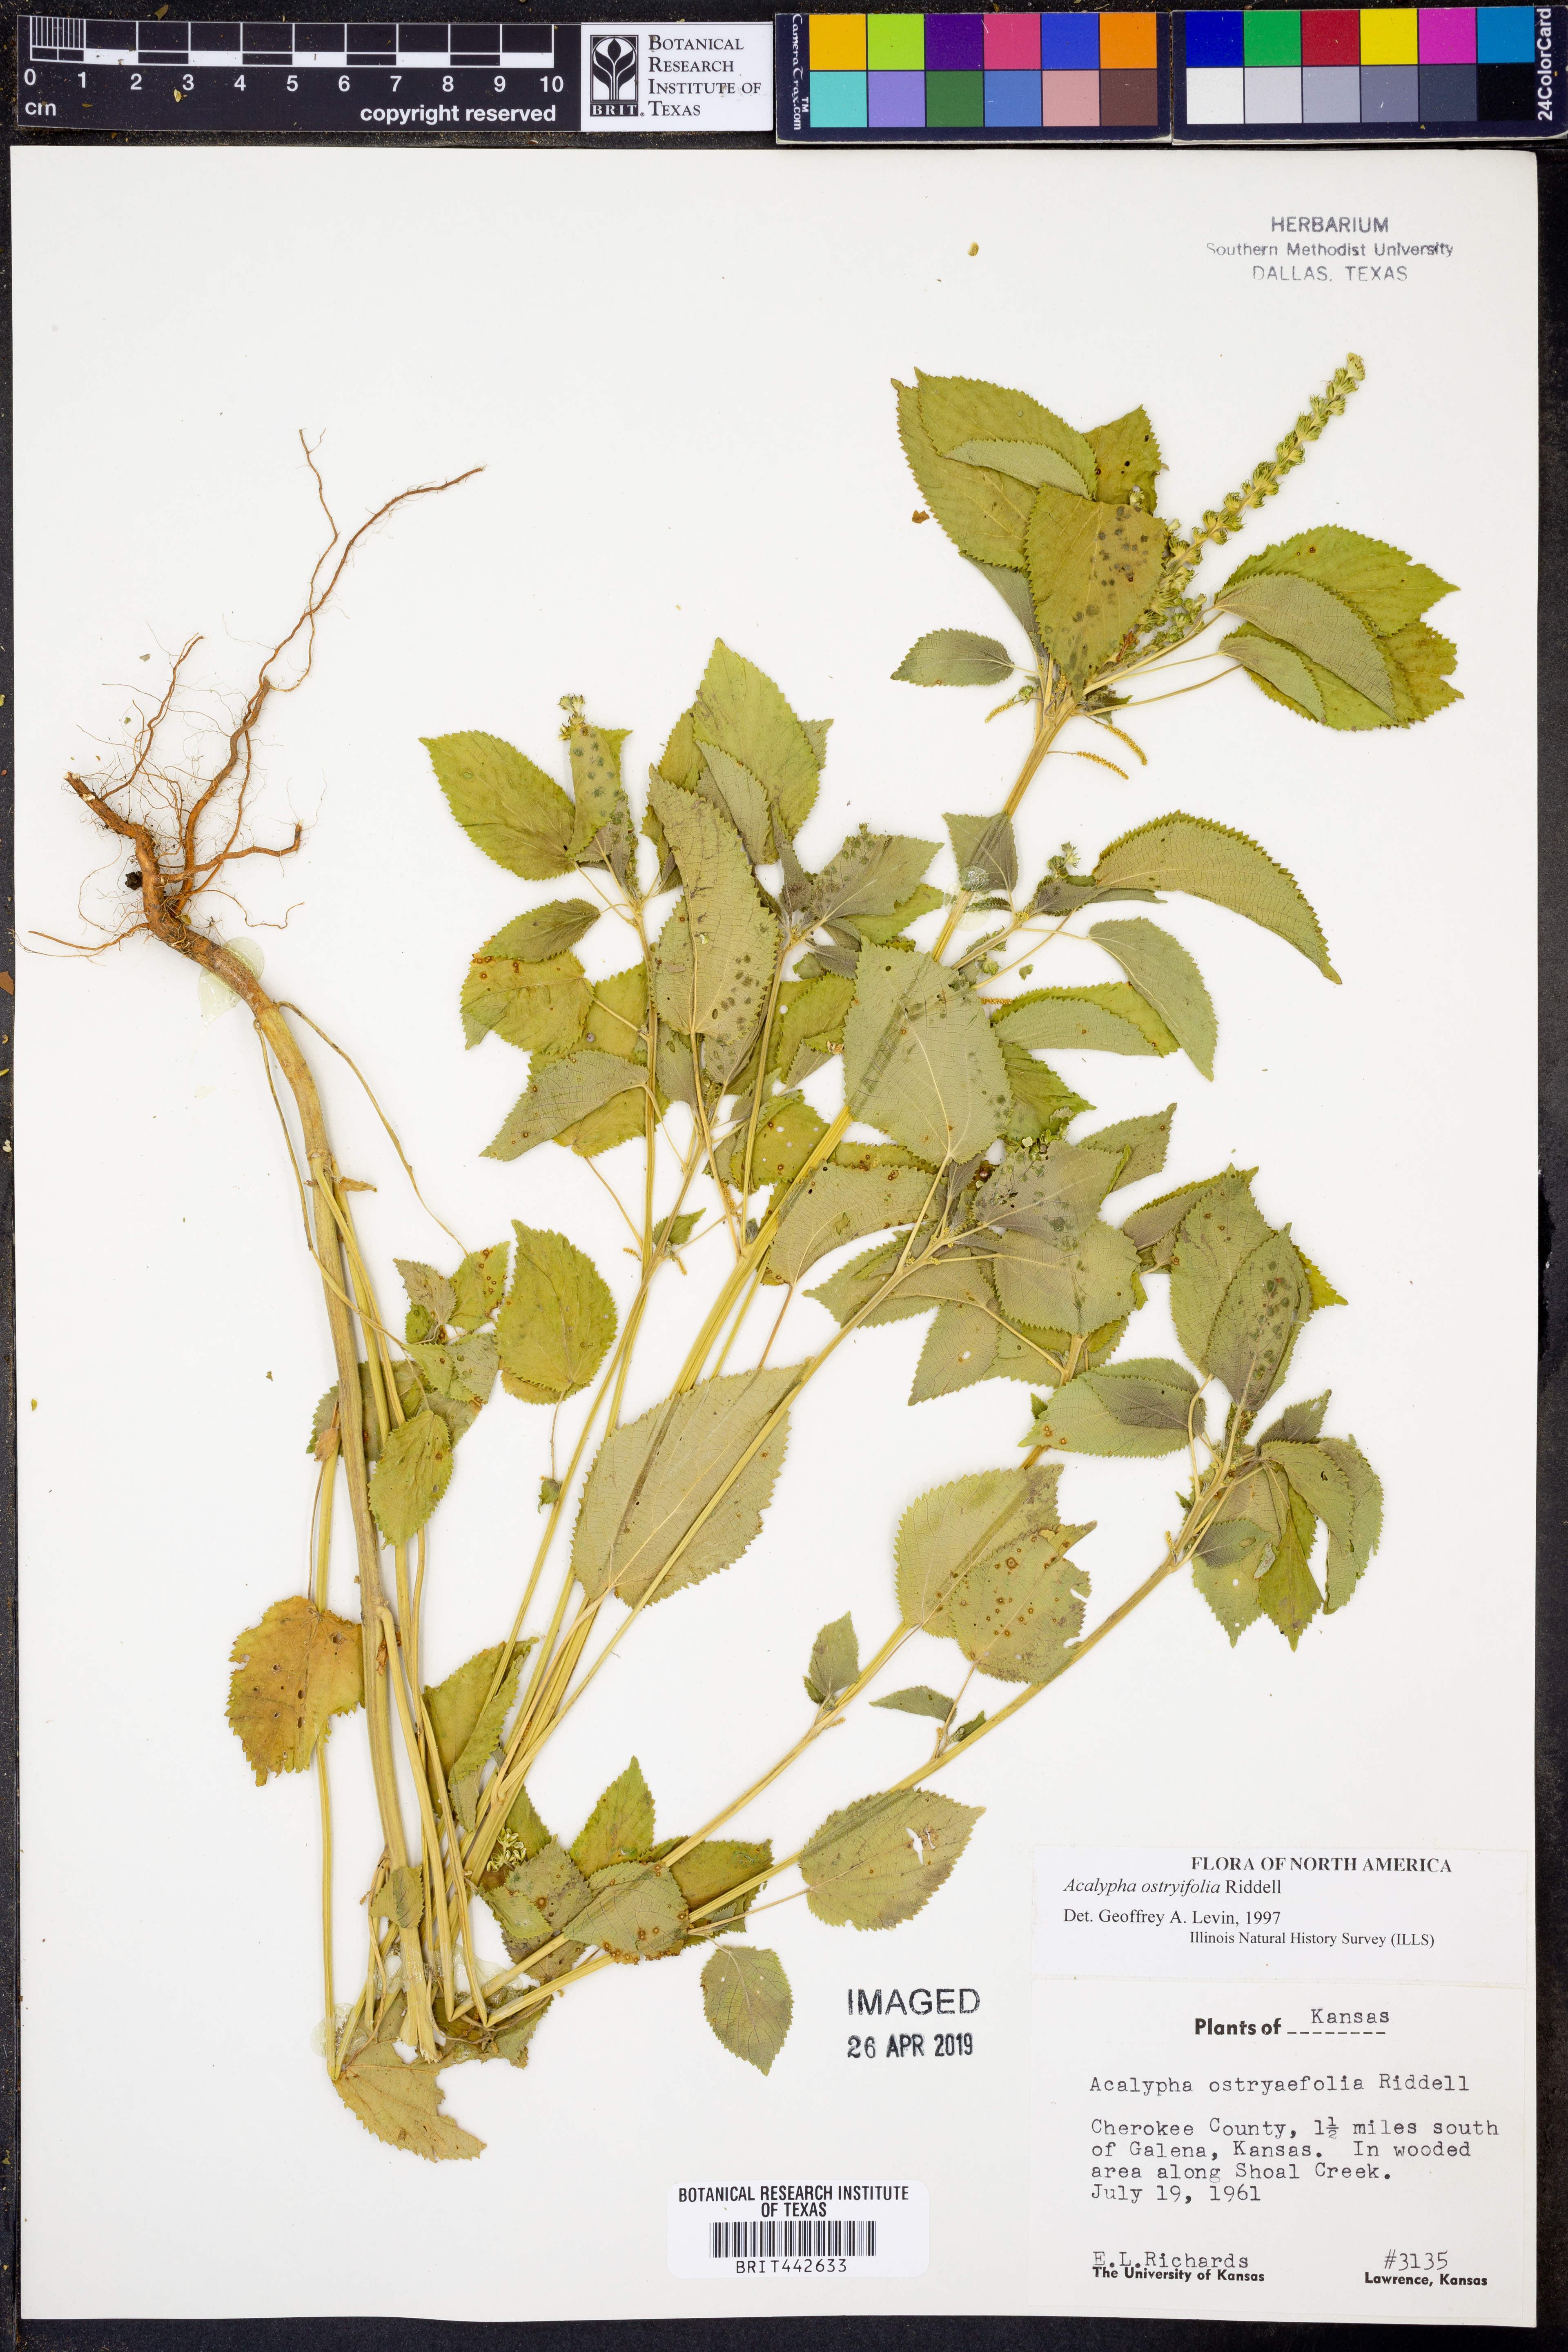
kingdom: Plantae
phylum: Tracheophyta
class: Magnoliopsida
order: Malpighiales
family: Euphorbiaceae
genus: Acalypha
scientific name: Acalypha persimilis
